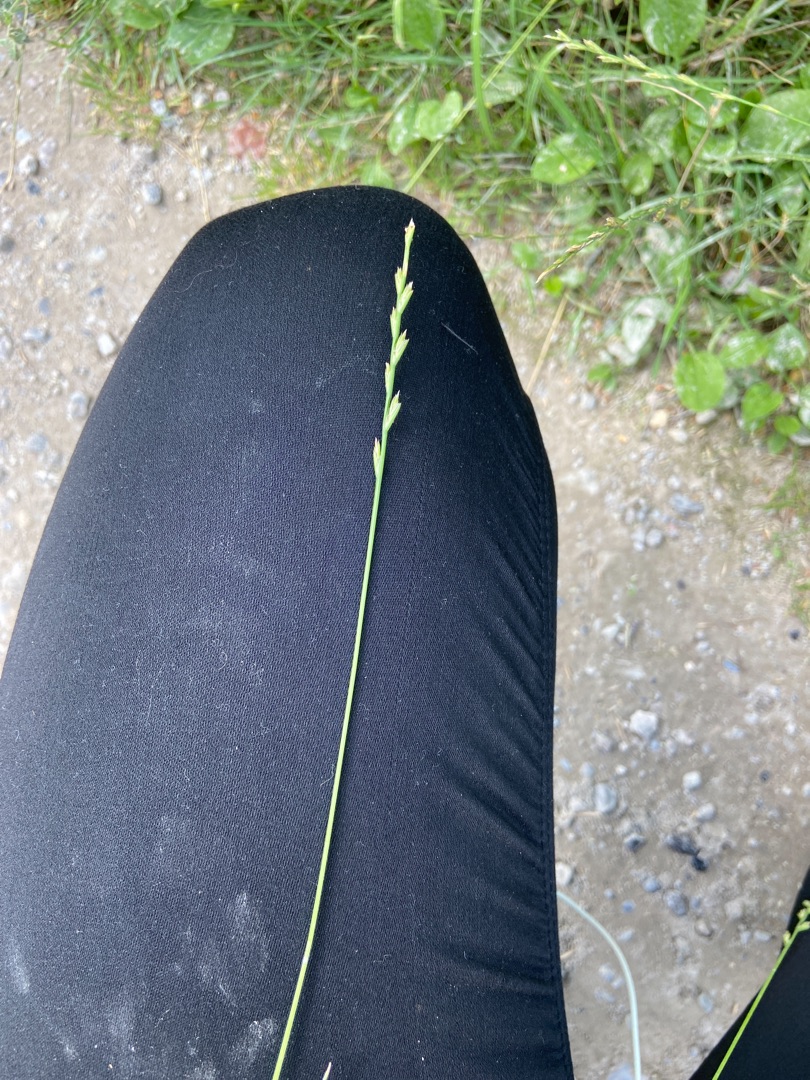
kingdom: Plantae
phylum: Tracheophyta
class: Liliopsida
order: Poales
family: Poaceae
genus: Lolium
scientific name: Lolium perenne
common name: Almindelig rajgræs
